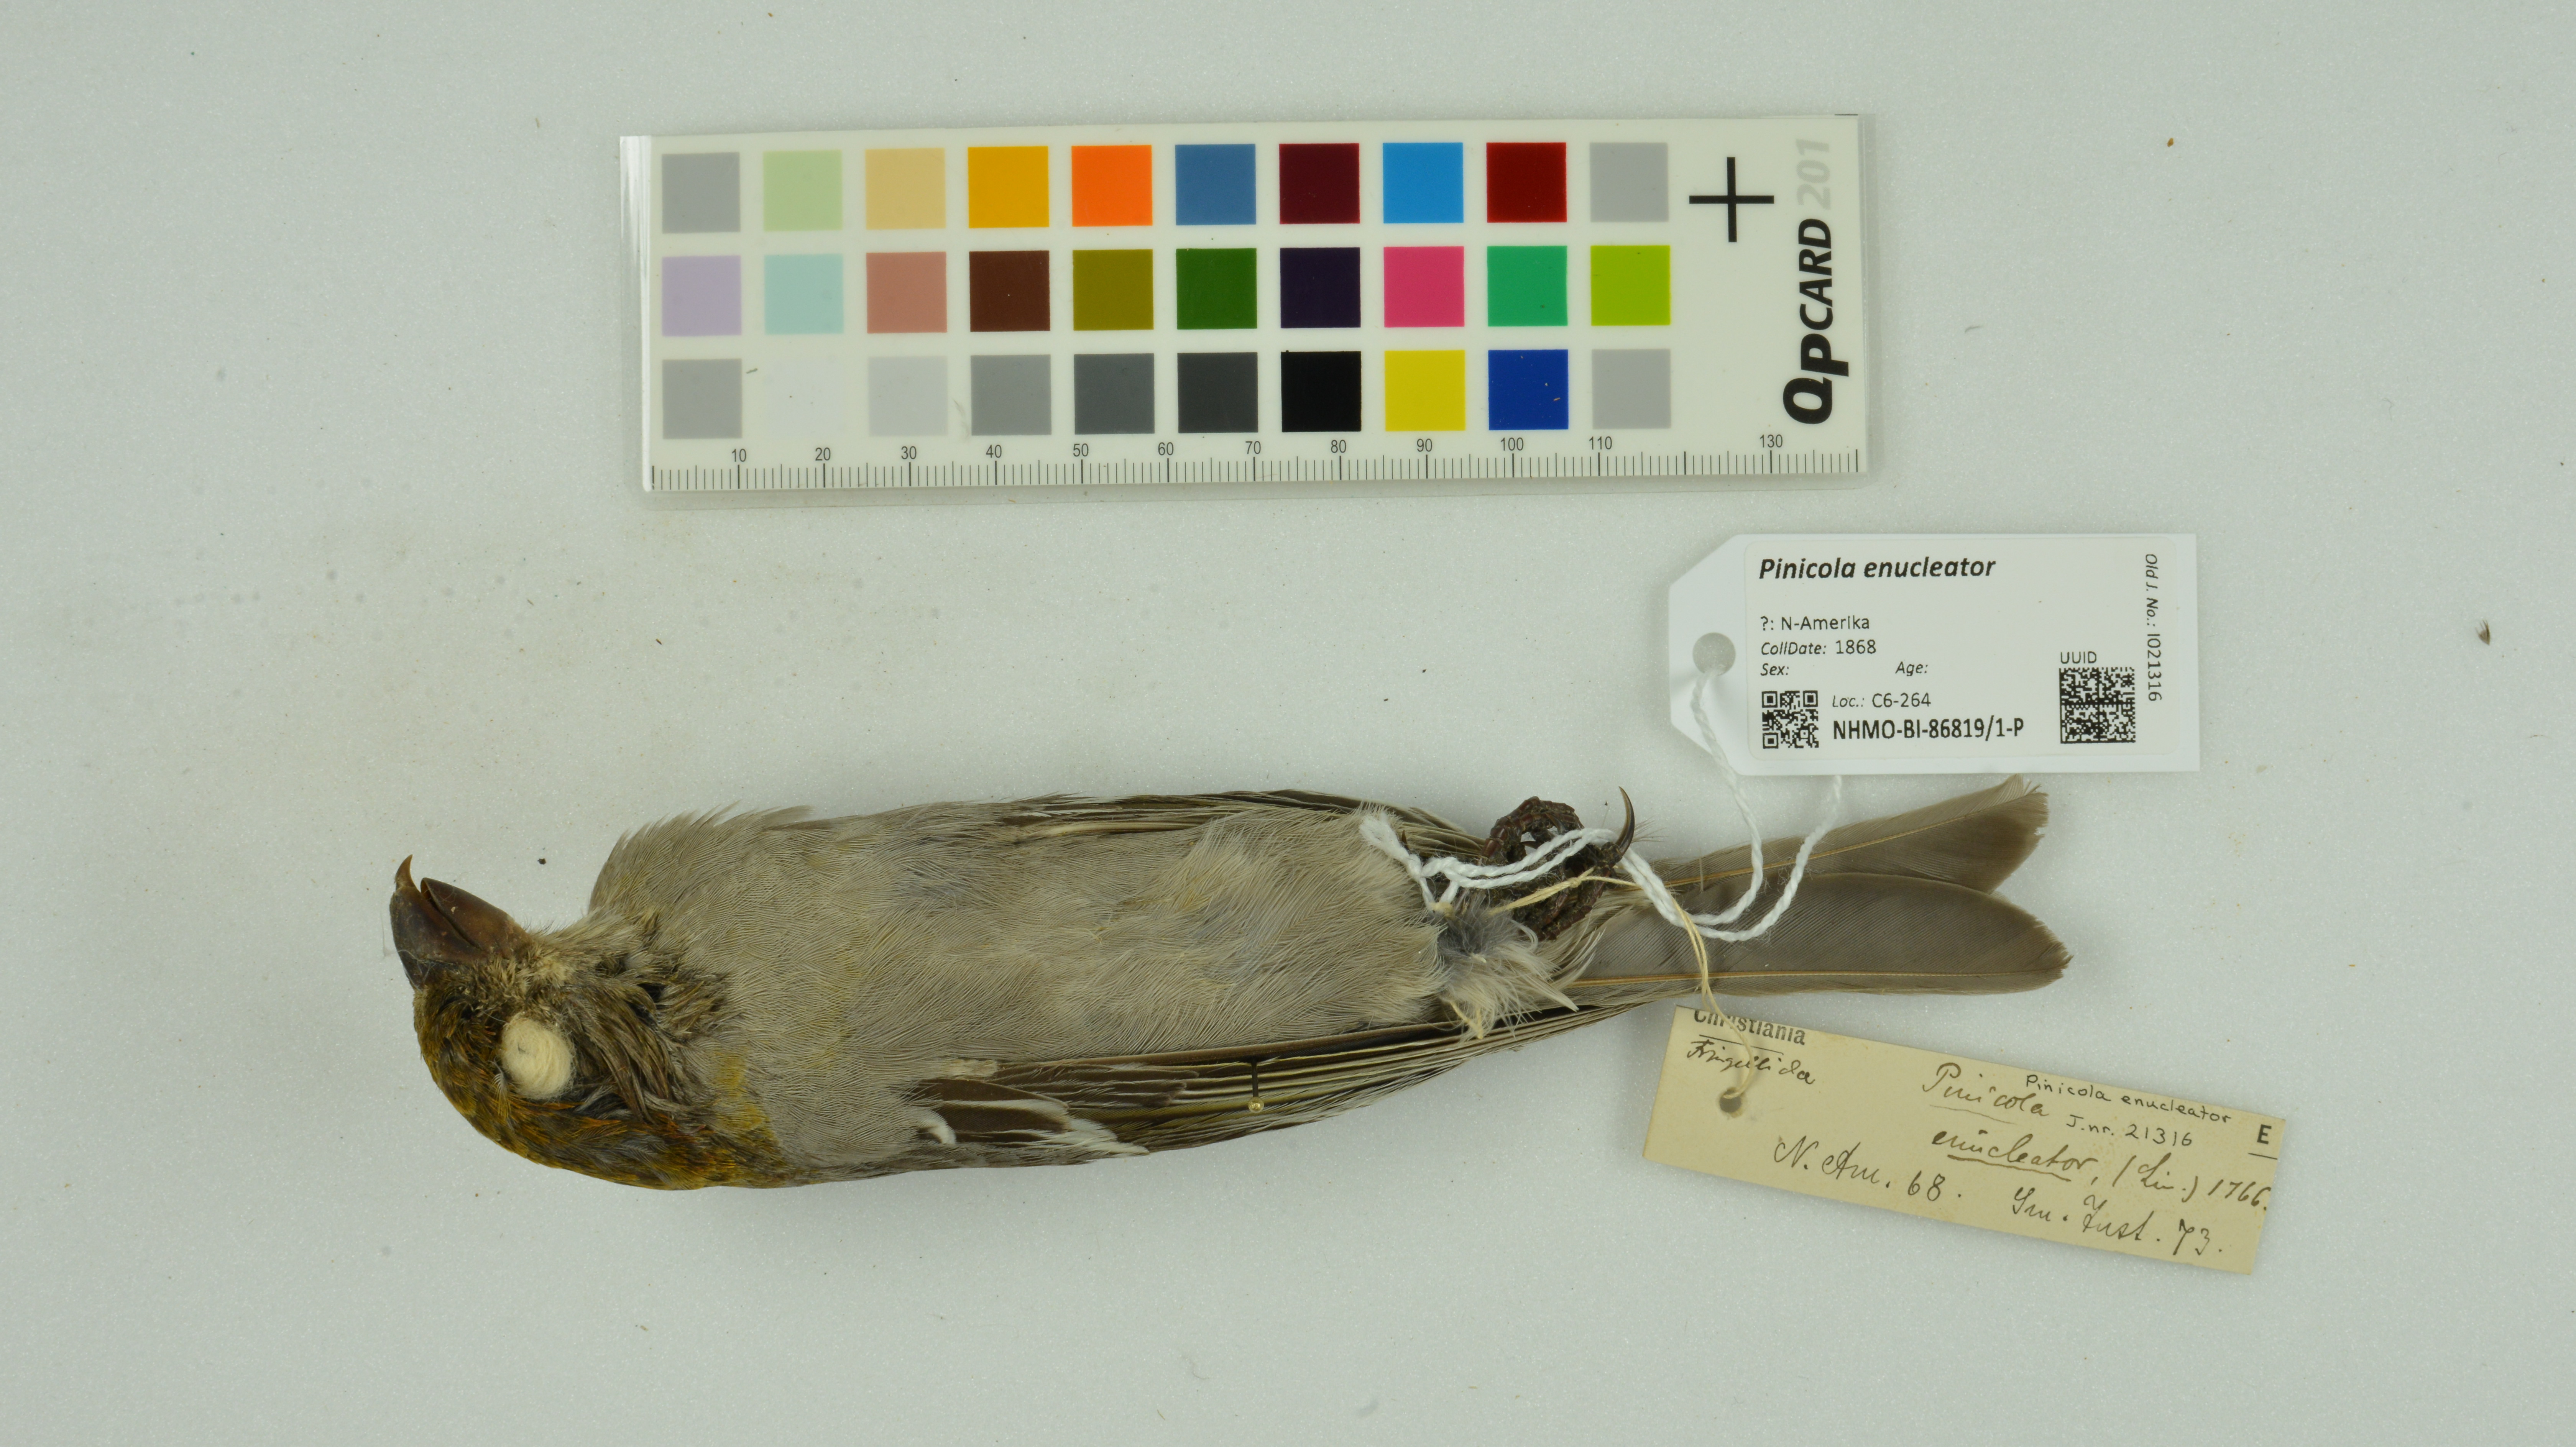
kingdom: Animalia
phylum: Chordata
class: Aves
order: Passeriformes
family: Fringillidae
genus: Pinicola
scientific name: Pinicola enucleator
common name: Pine grosbeak
